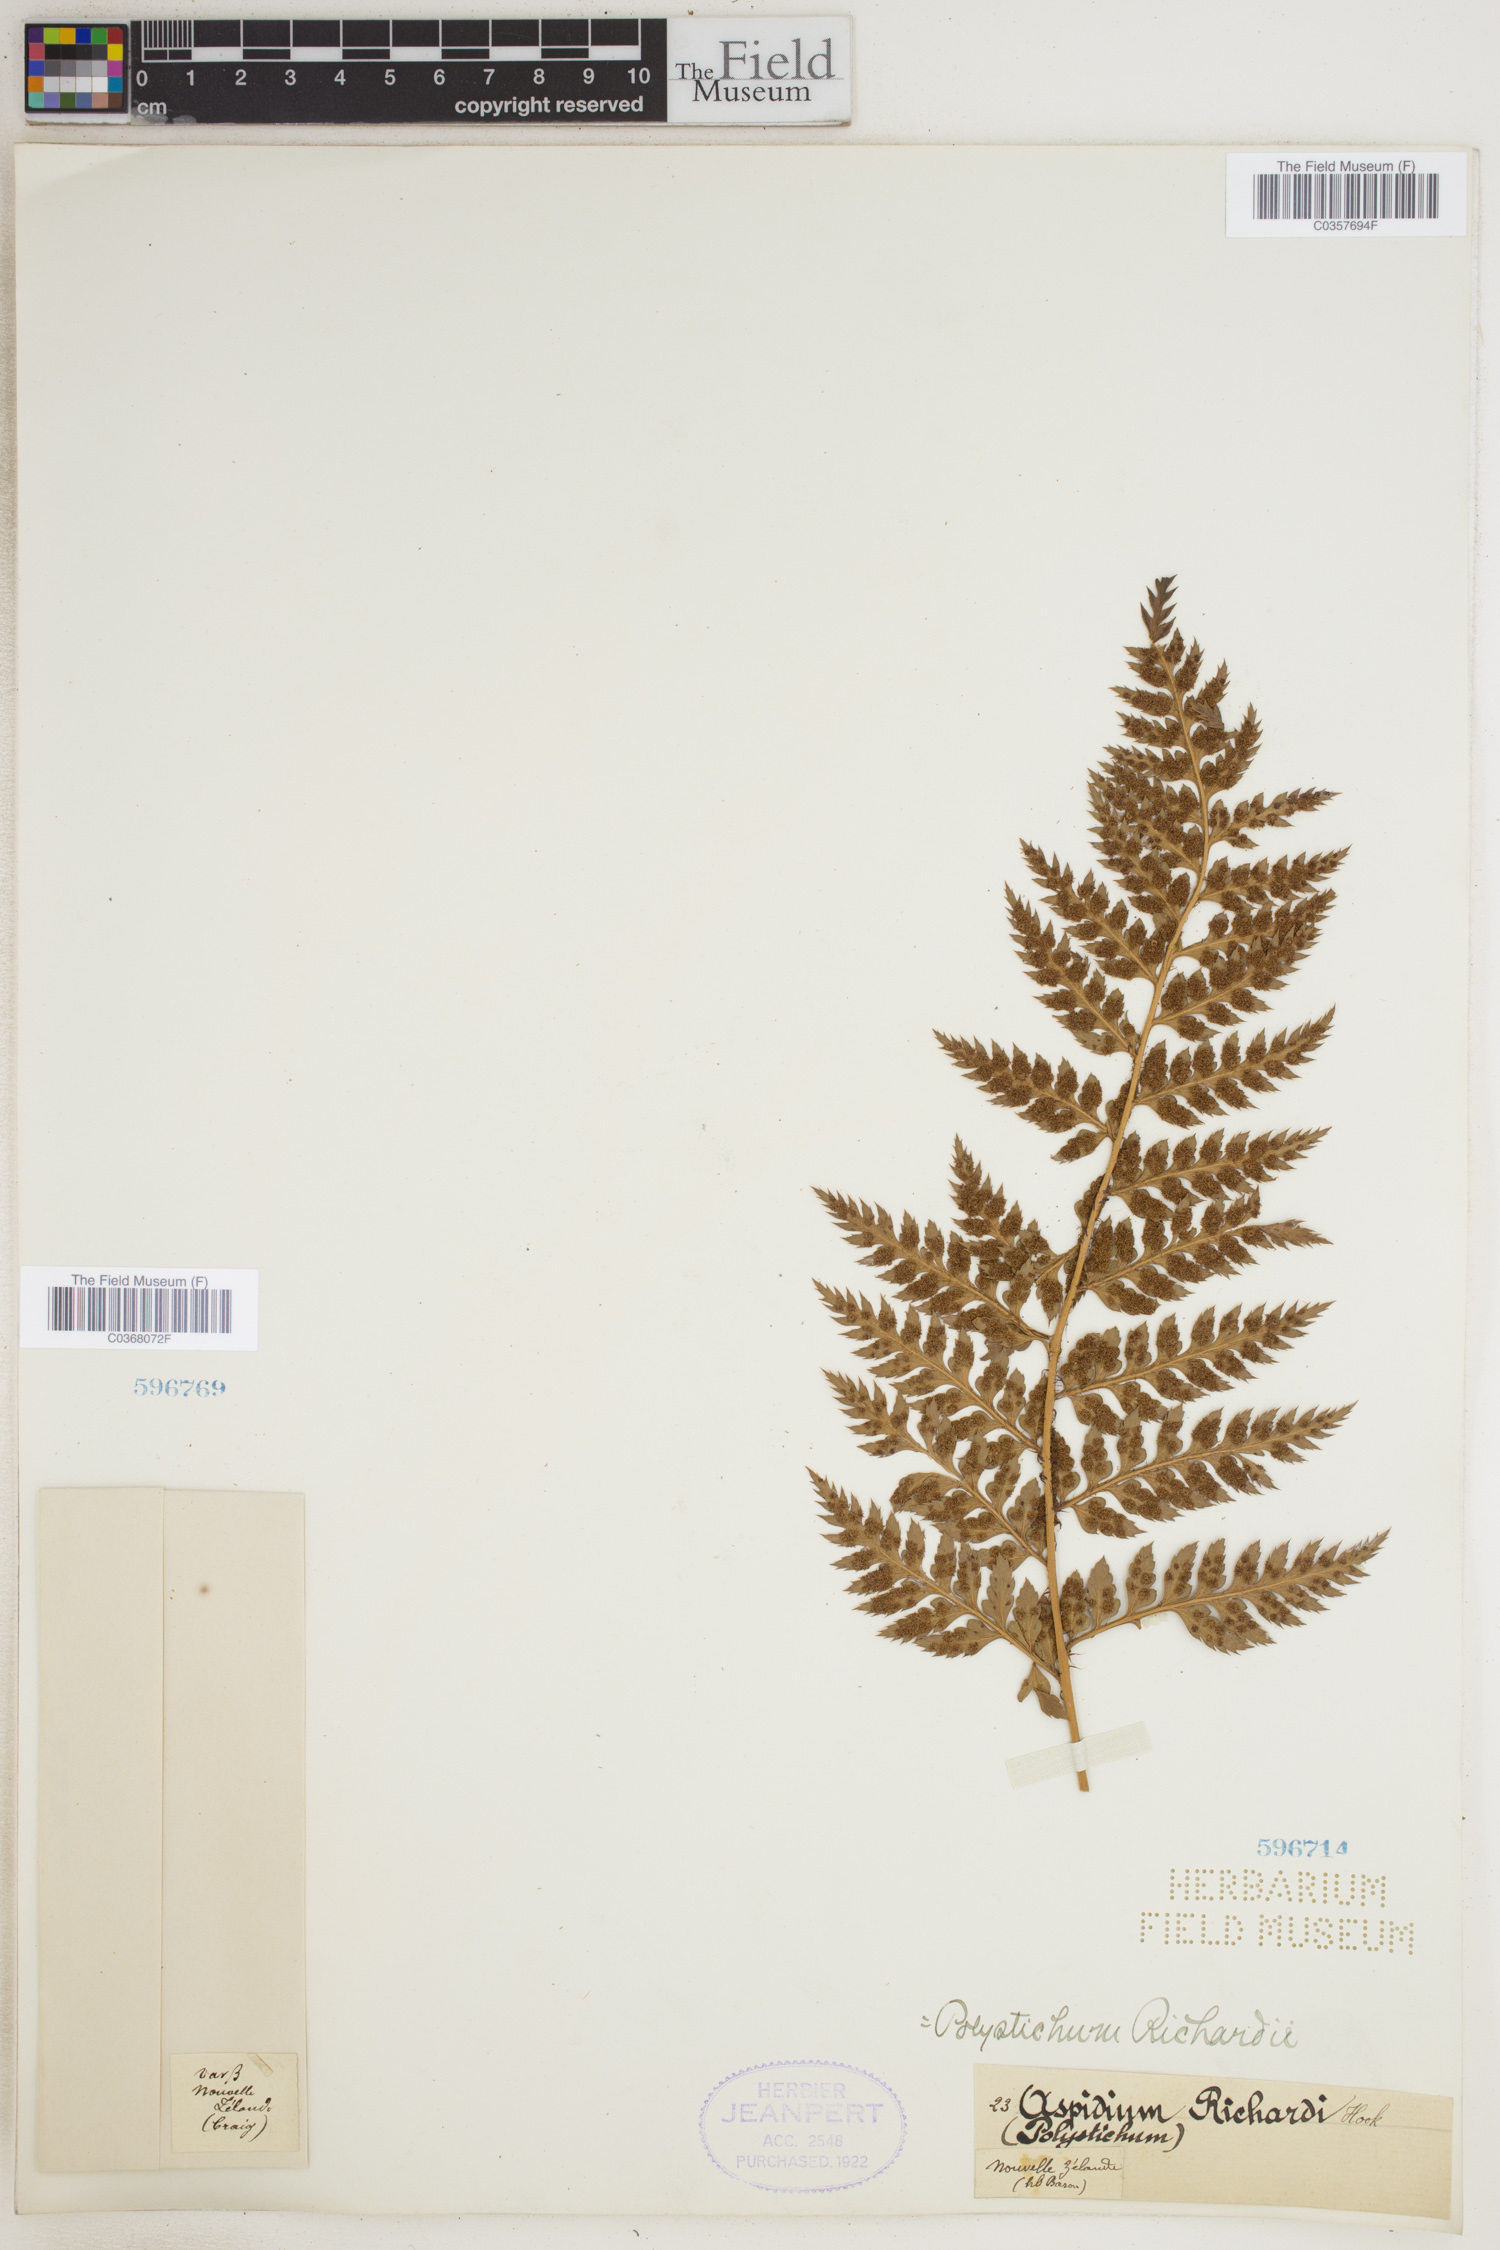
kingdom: Plantae
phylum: Tracheophyta
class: Polypodiopsida
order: Polypodiales
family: Dryopteridaceae
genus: Polystichum
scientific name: Polystichum neozelandicum
